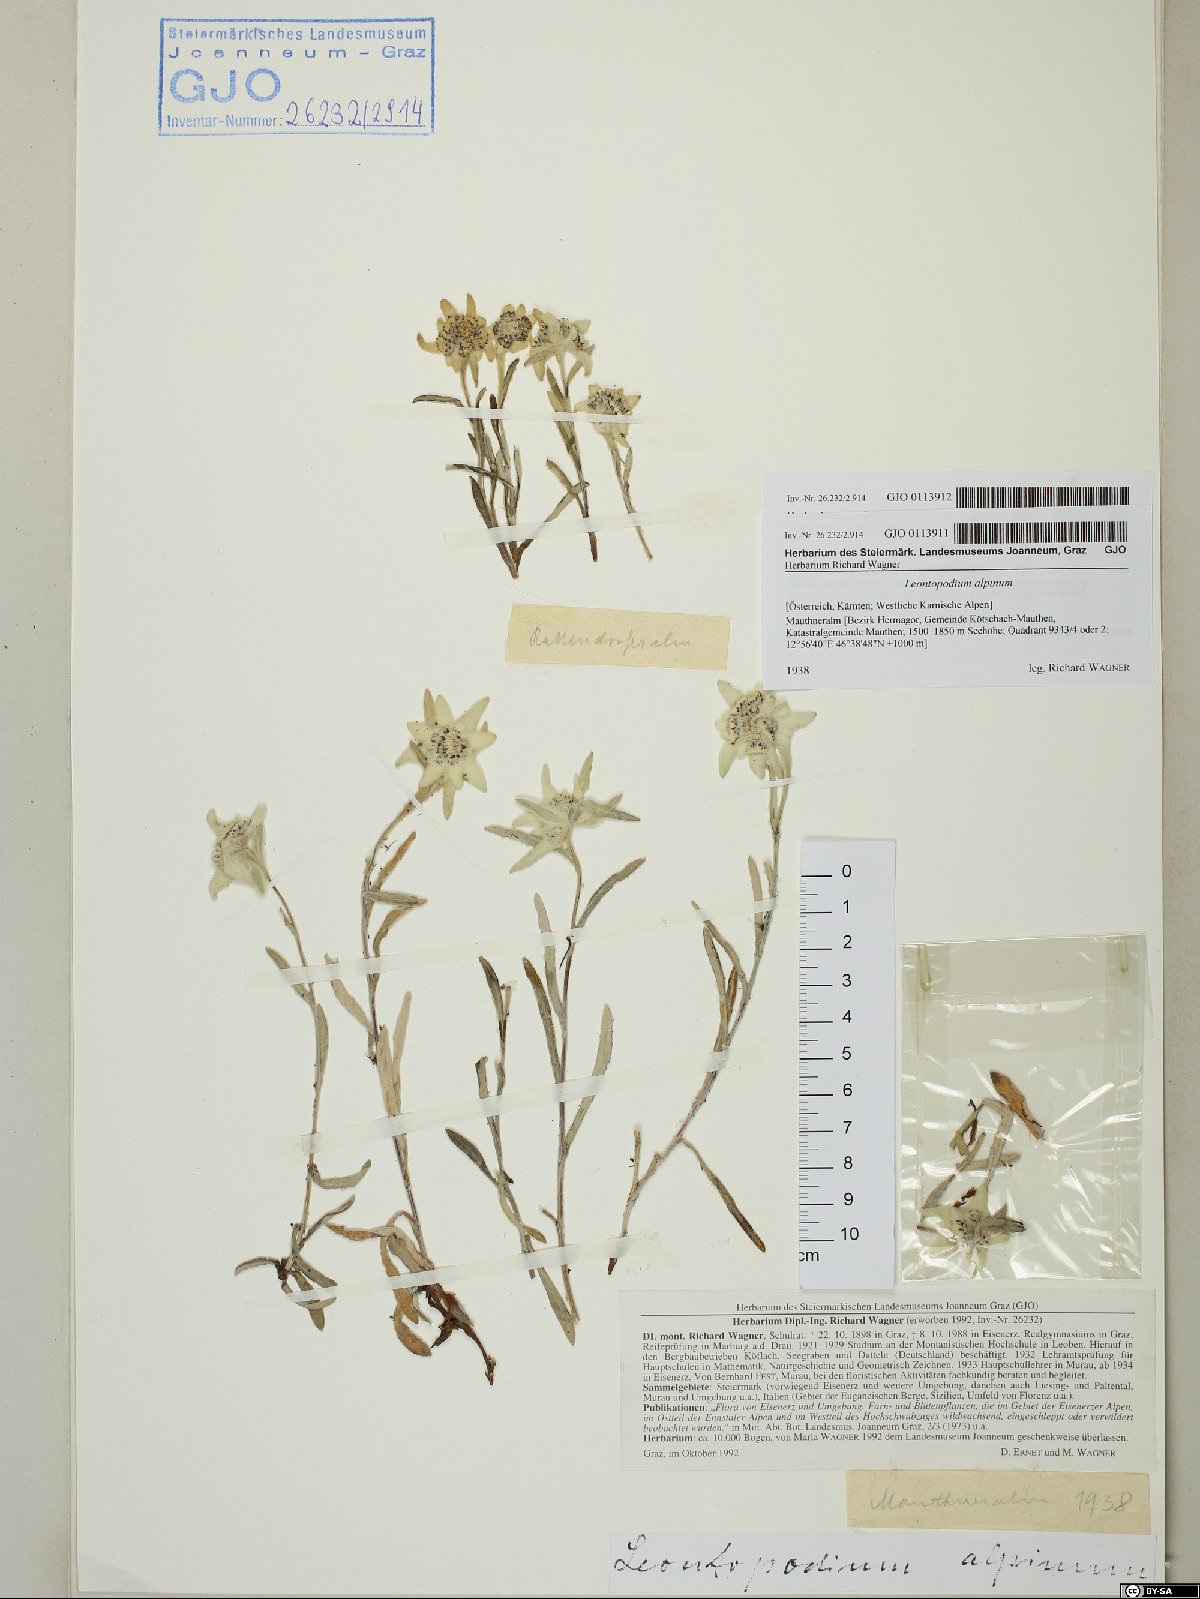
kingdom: Plantae
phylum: Tracheophyta
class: Magnoliopsida
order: Asterales
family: Asteraceae
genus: Leontopodium
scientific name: Leontopodium nivale
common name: Edelweiss
